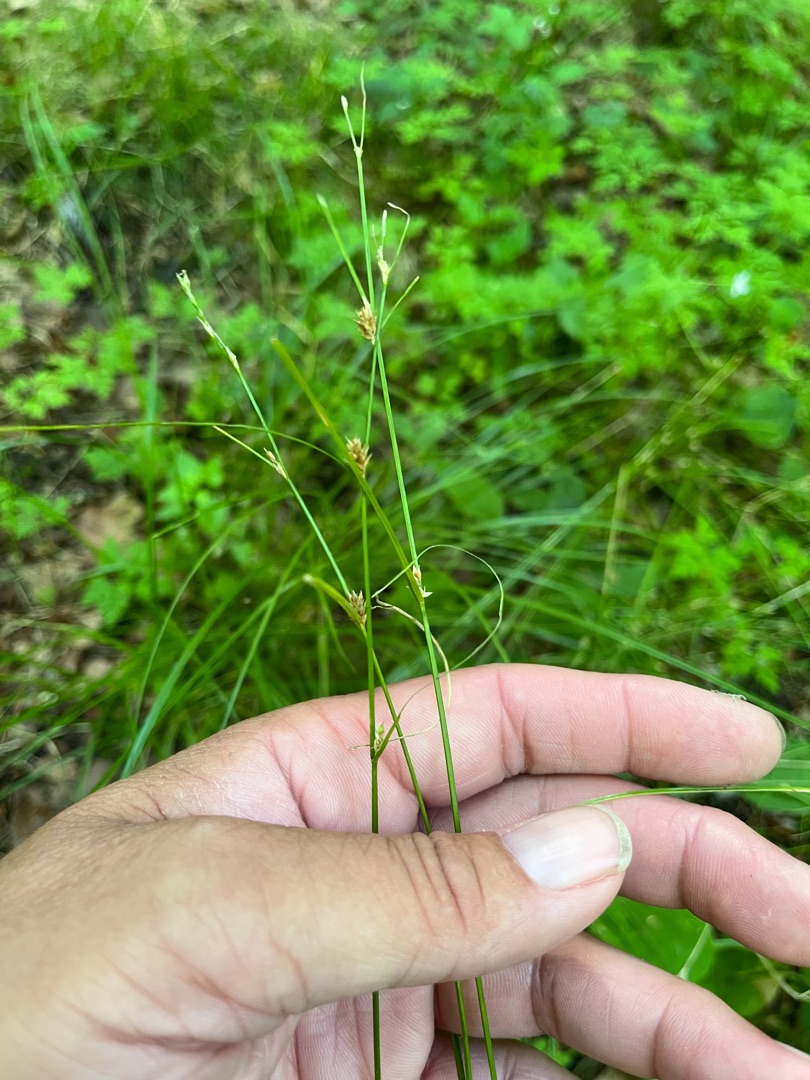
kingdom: Plantae
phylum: Tracheophyta
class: Liliopsida
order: Poales
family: Cyperaceae
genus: Carex
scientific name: Carex remota
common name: Akselblomstret star
